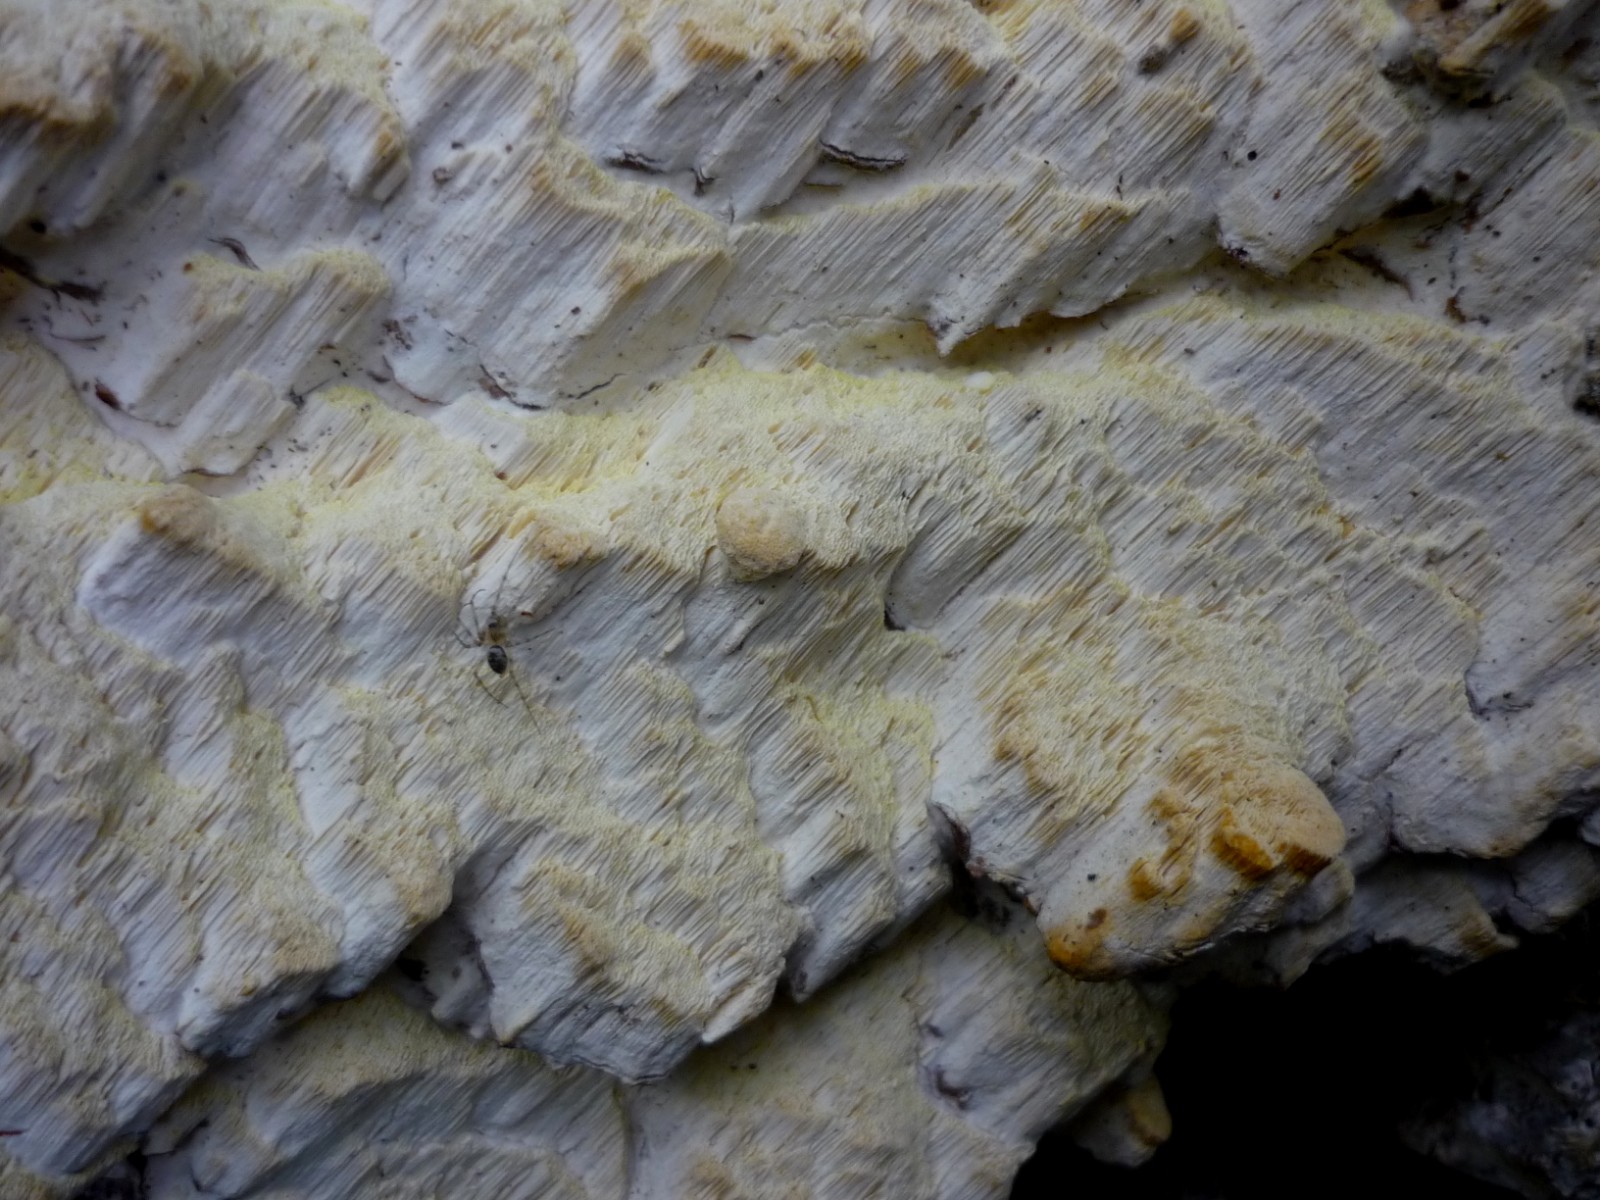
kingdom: Fungi
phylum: Basidiomycota
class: Agaricomycetes
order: Polyporales
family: Fomitopsidaceae
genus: Daedalea
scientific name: Daedalea xantha
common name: gul sejporesvamp
